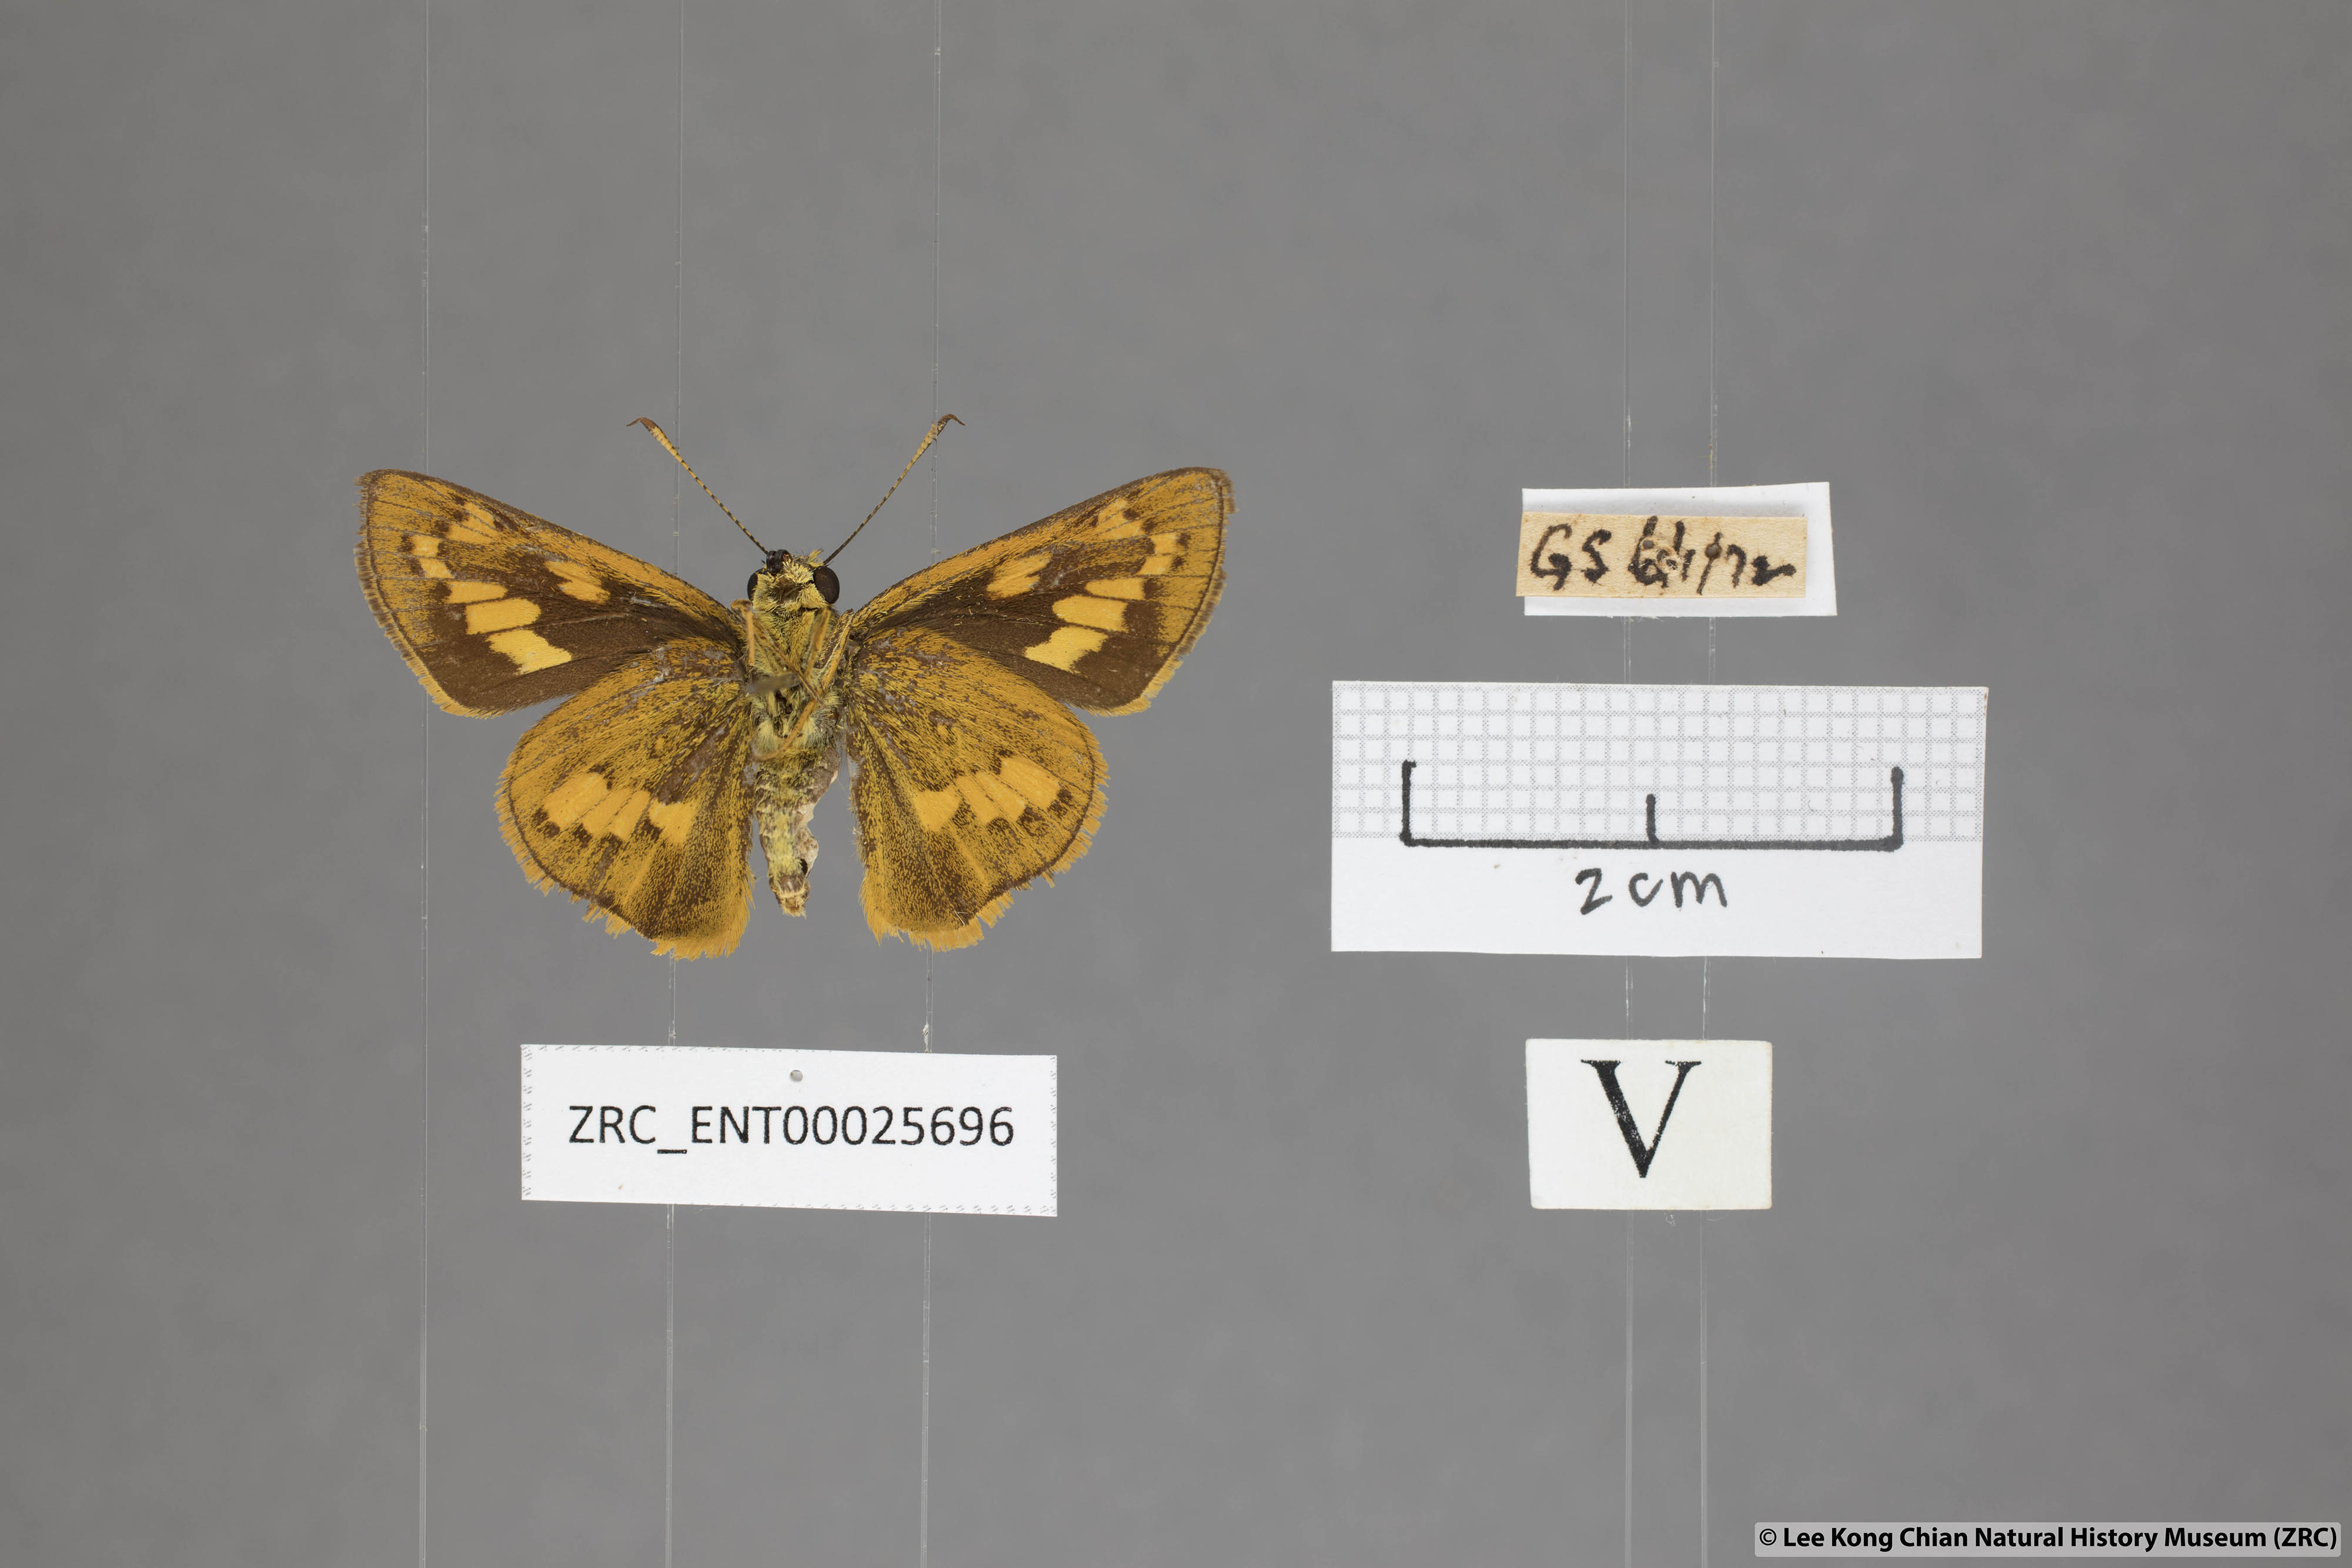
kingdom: Animalia
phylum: Arthropoda
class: Insecta
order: Lepidoptera
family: Hesperiidae
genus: Telicota
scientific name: Telicota ohara
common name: Dark palm dart
